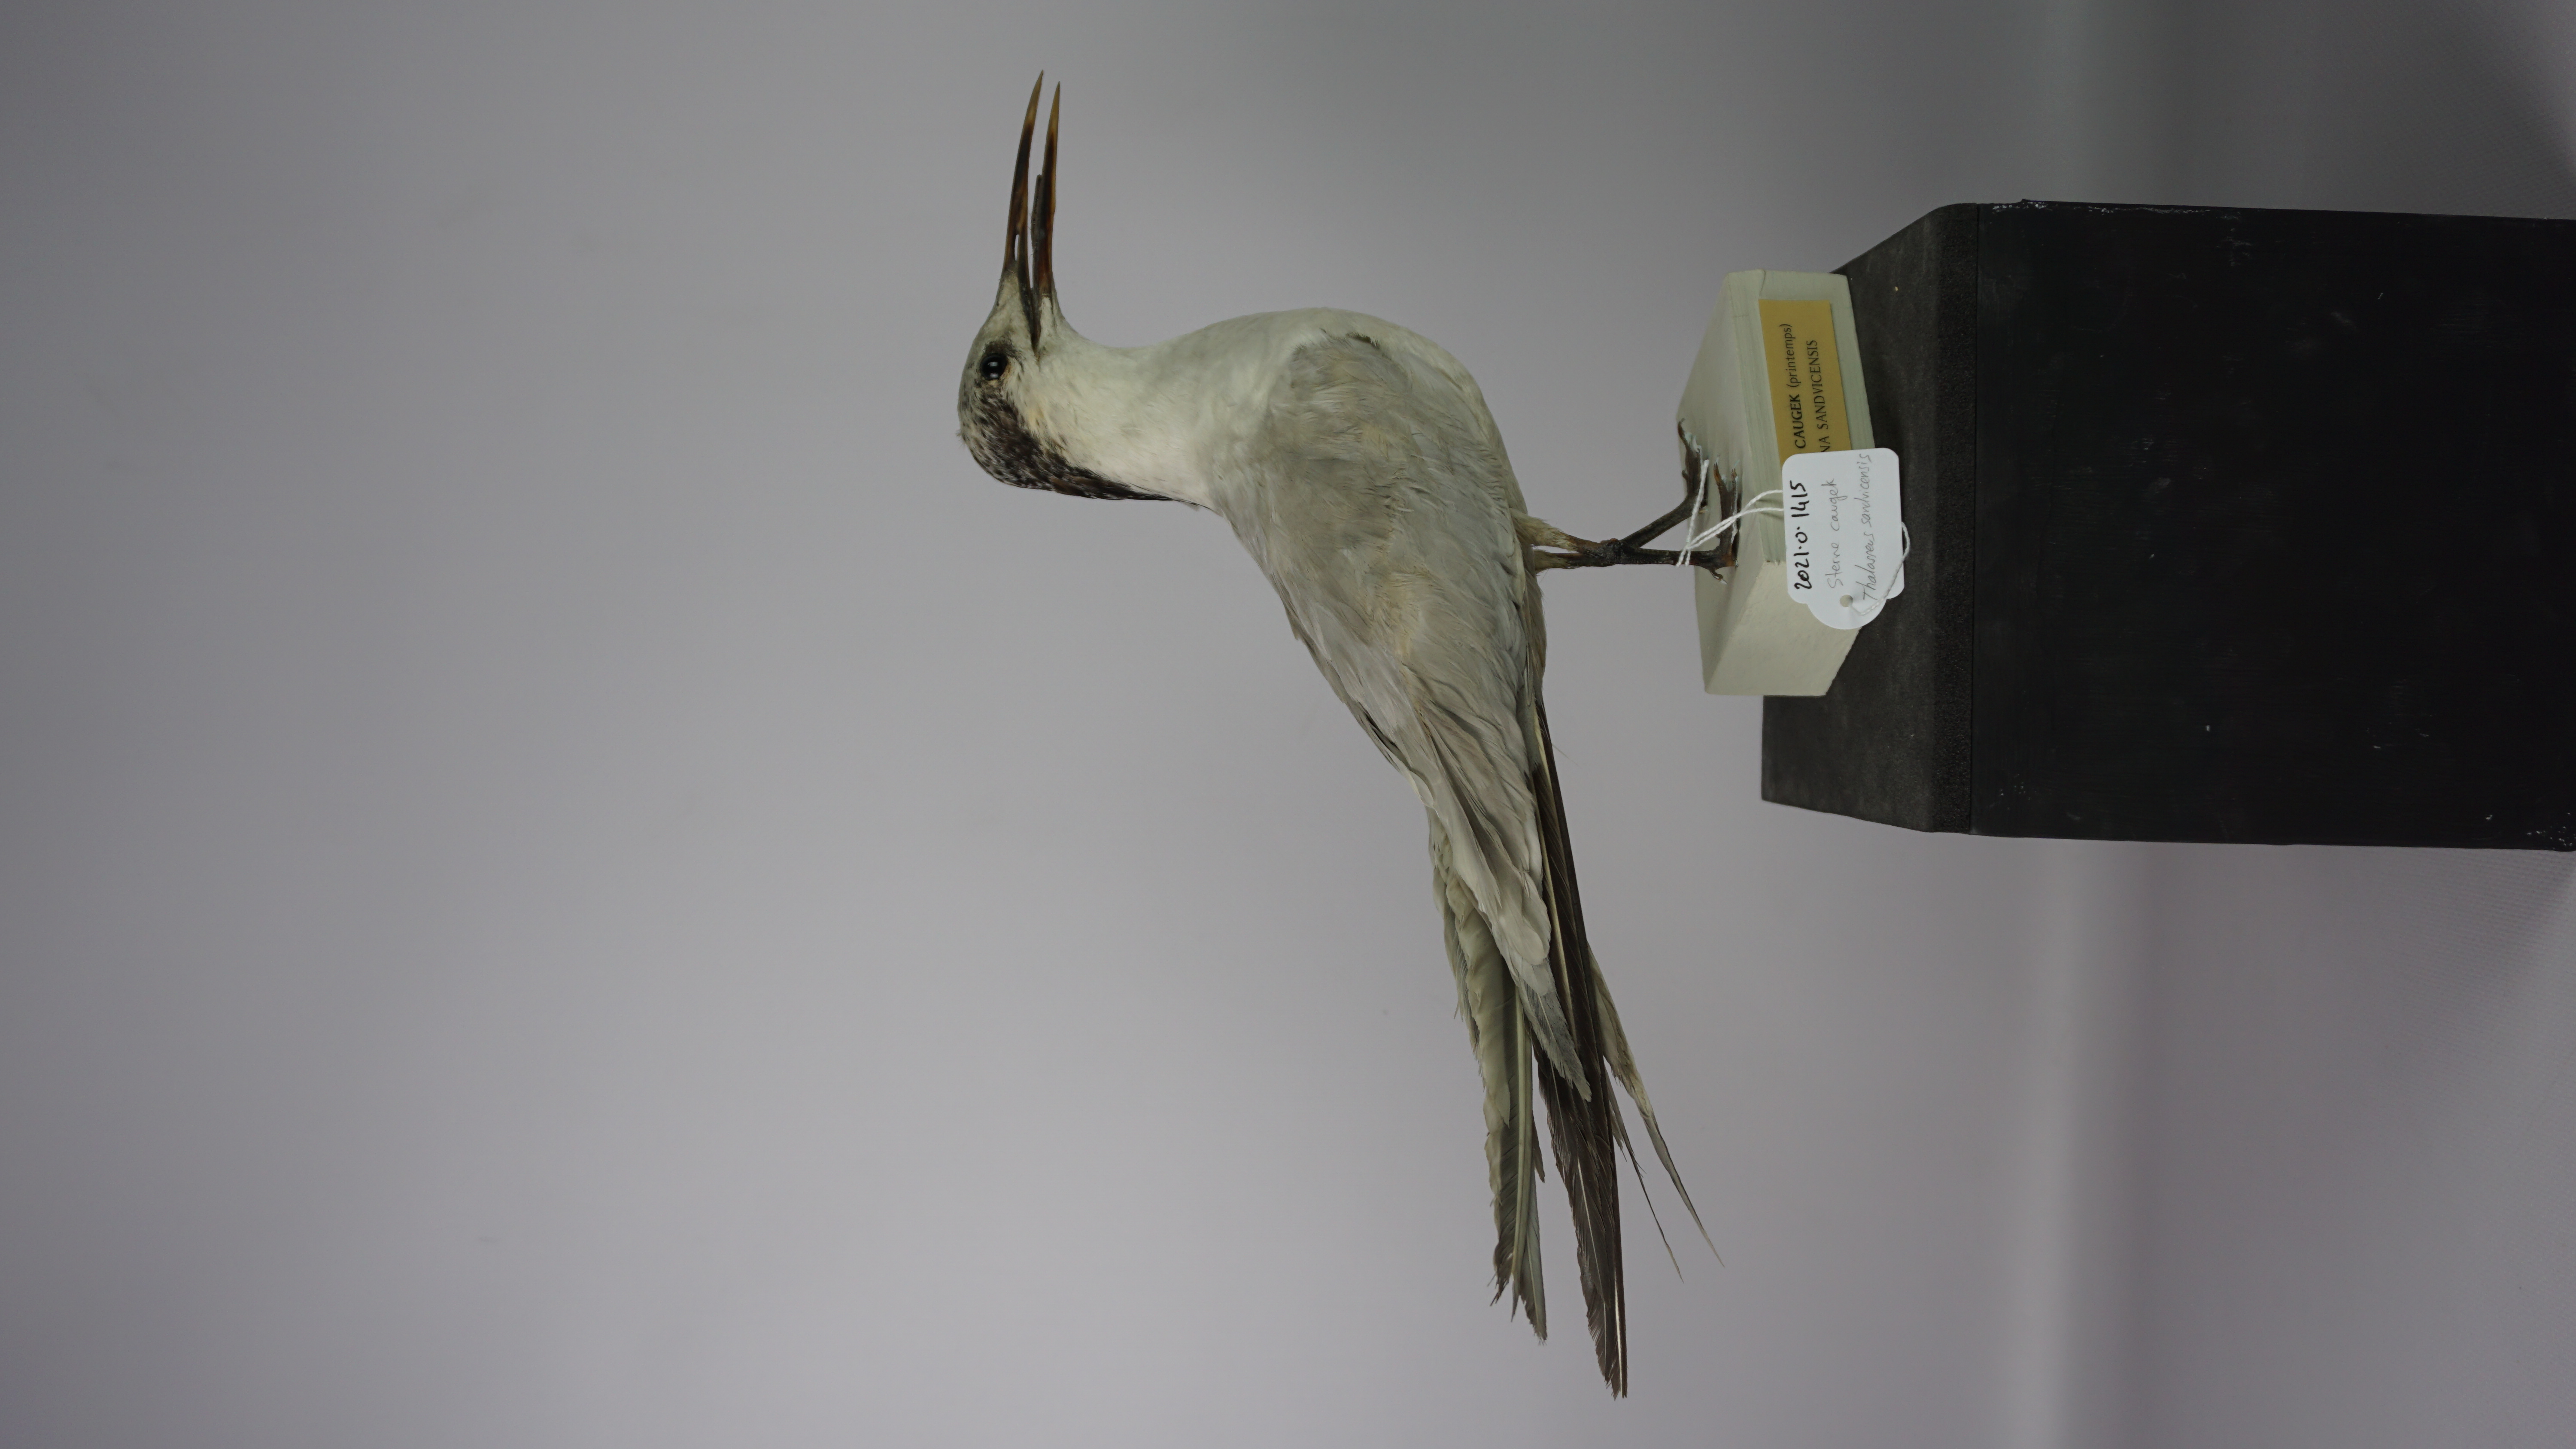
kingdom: Animalia
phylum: Chordata
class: Aves
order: Charadriiformes
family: Laridae
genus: Thalasseus
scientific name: Thalasseus sandvicensis
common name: Sandwich tern
